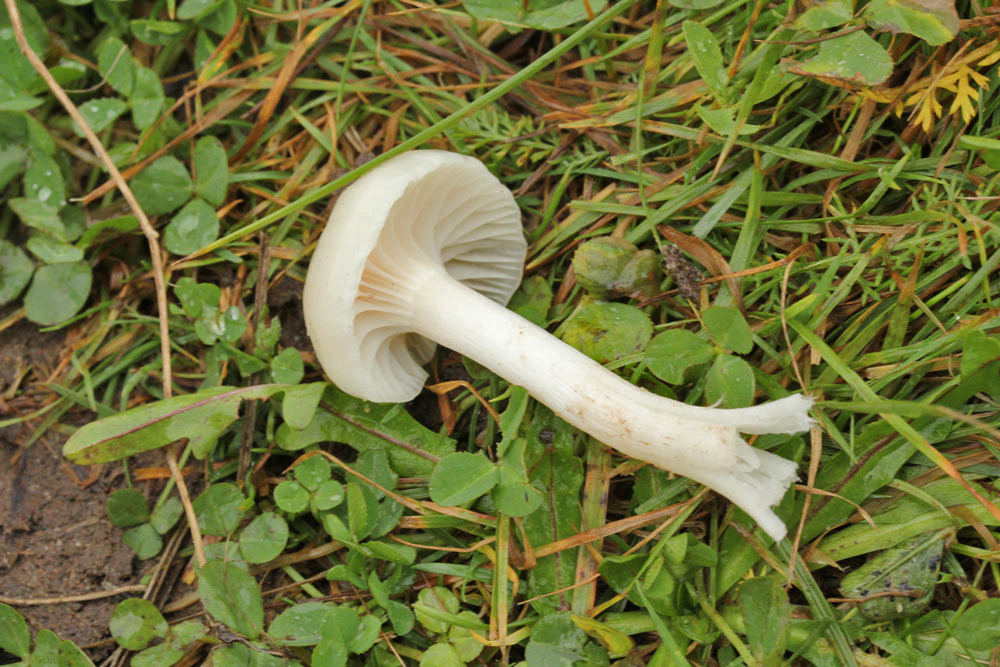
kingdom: Fungi
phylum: Basidiomycota
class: Agaricomycetes
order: Agaricales
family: Hygrophoraceae
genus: Cuphophyllus
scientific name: Cuphophyllus virgineus
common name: snehvid vokshat
